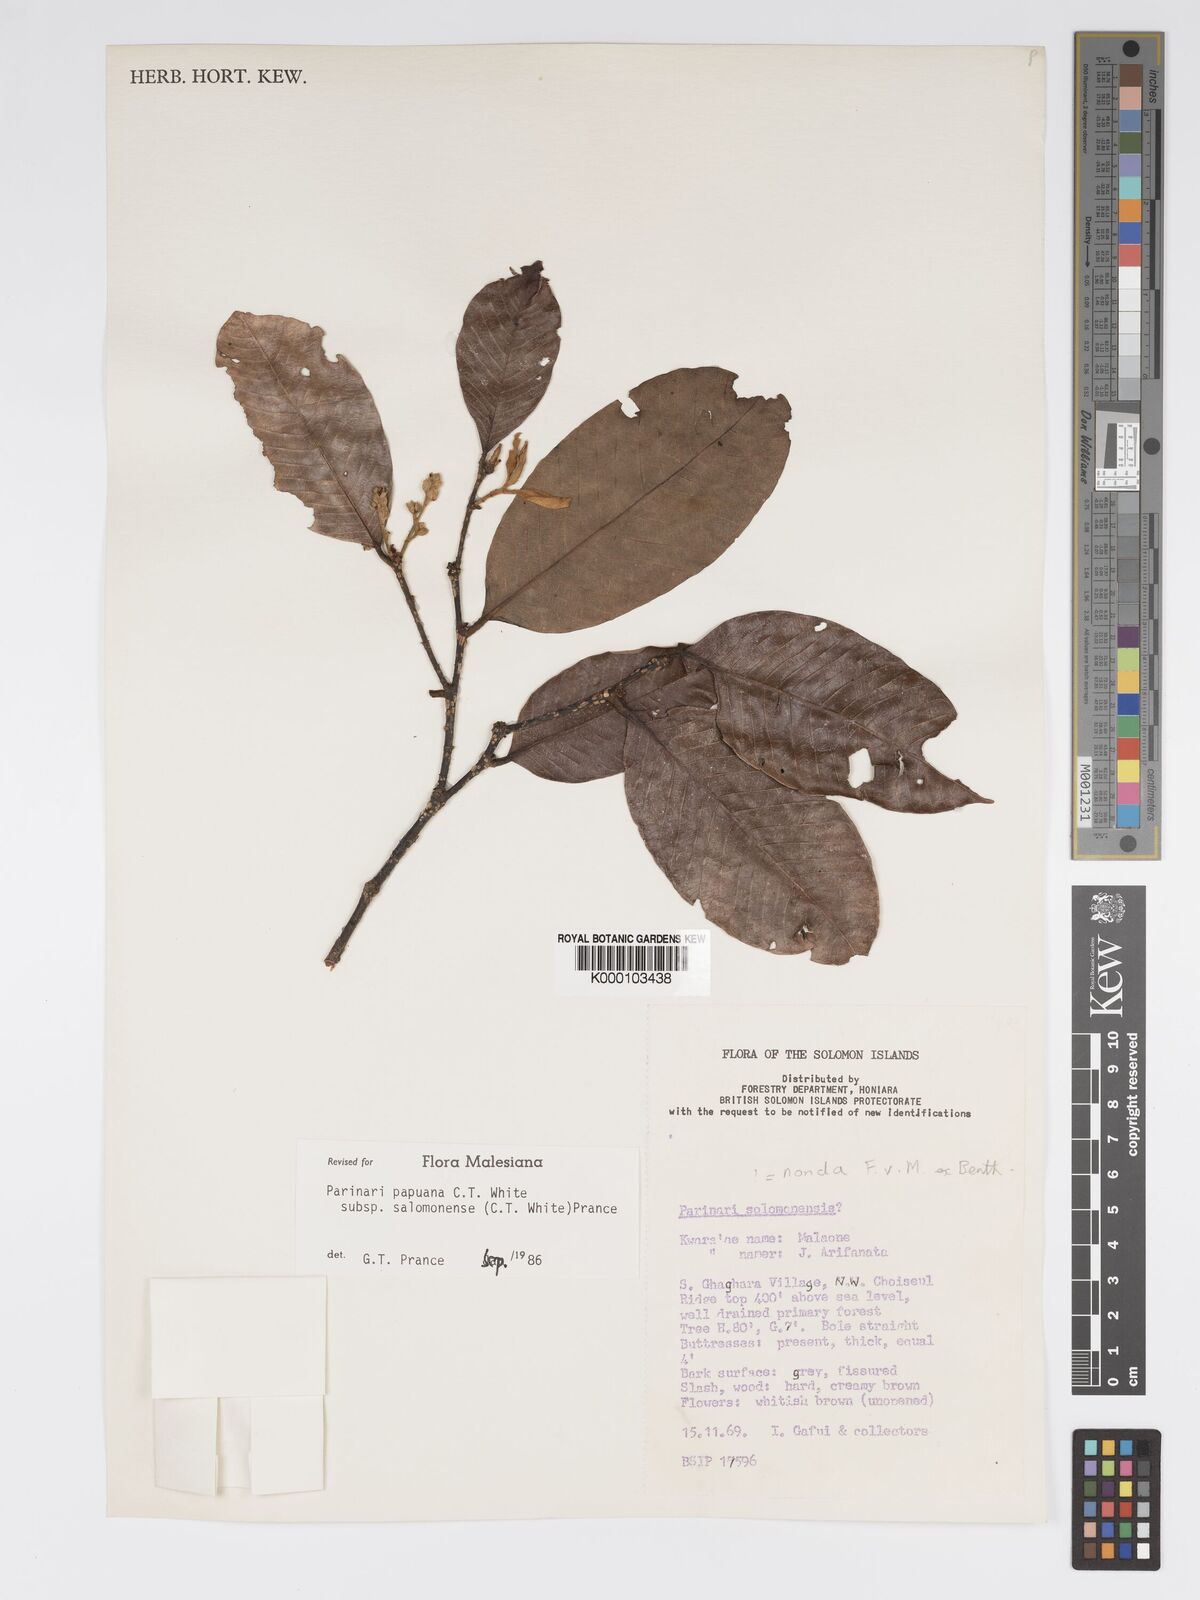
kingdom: Plantae
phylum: Tracheophyta
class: Magnoliopsida
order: Malpighiales
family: Chrysobalanaceae
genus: Parinari
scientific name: Parinari papuana
